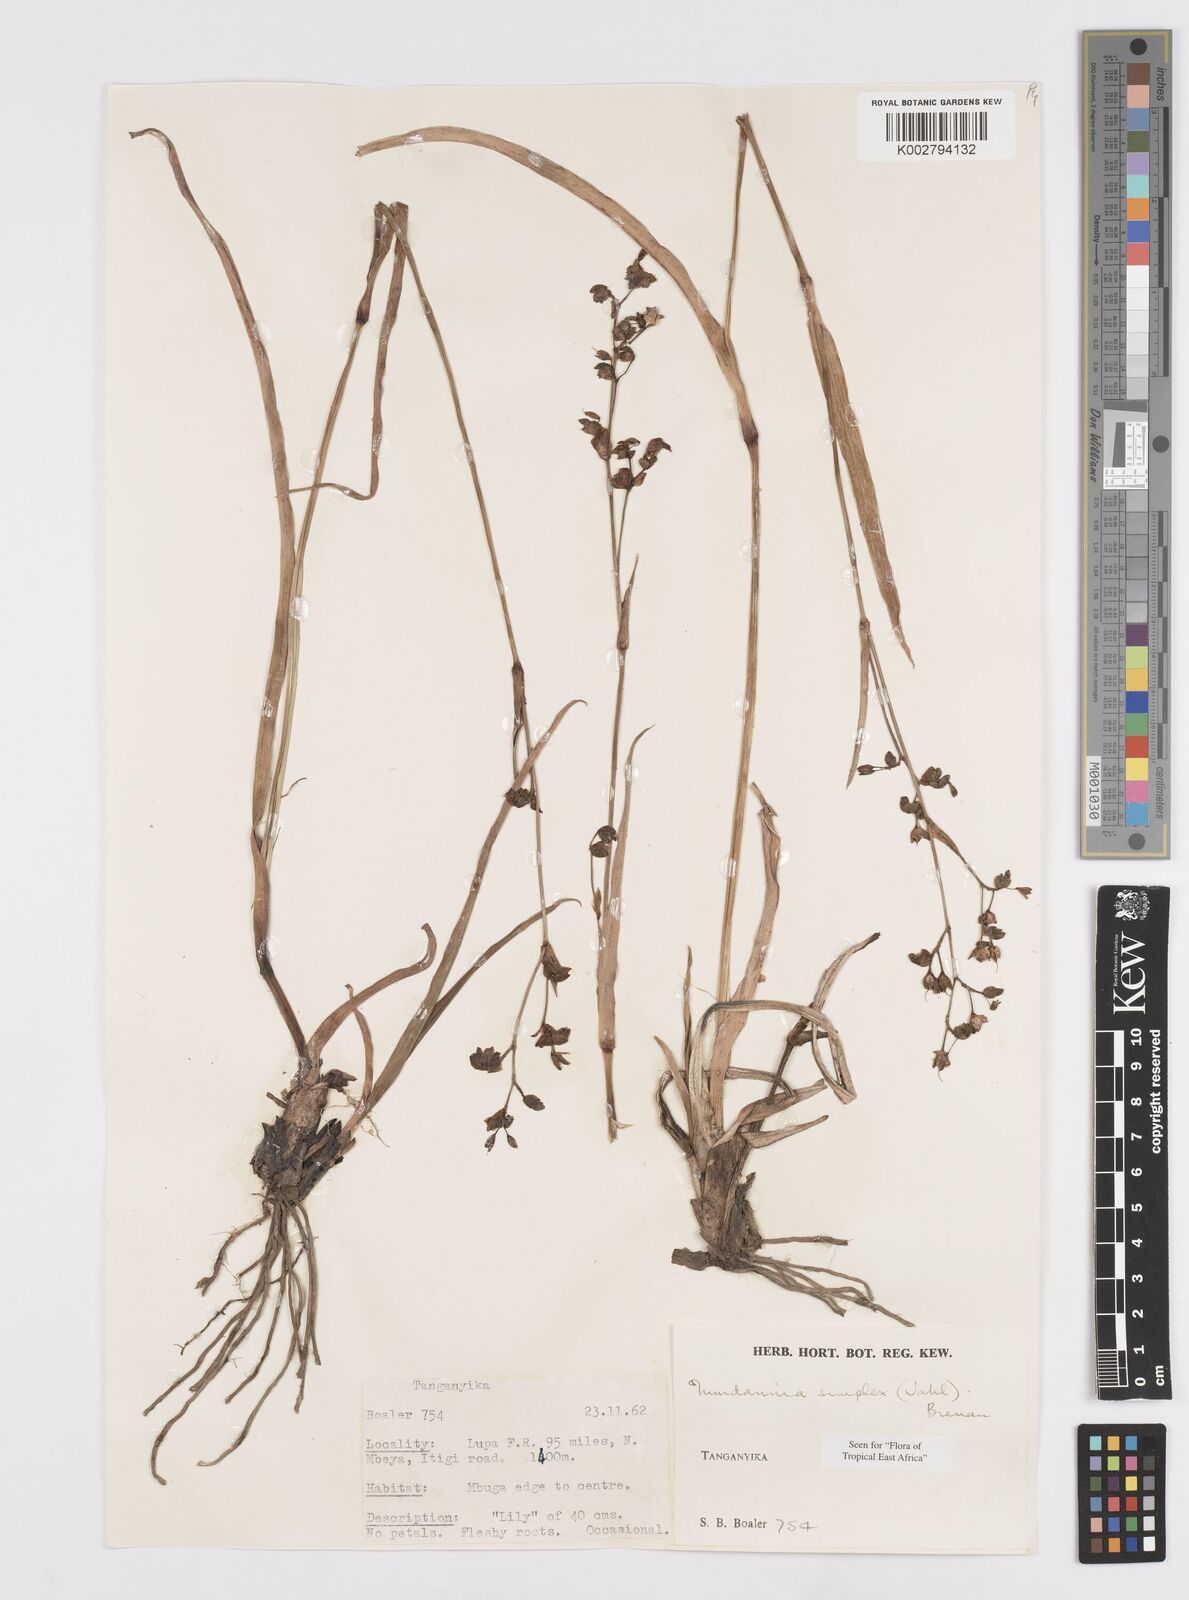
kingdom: Plantae
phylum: Tracheophyta
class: Liliopsida
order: Commelinales
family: Commelinaceae
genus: Murdannia
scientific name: Murdannia simplex
